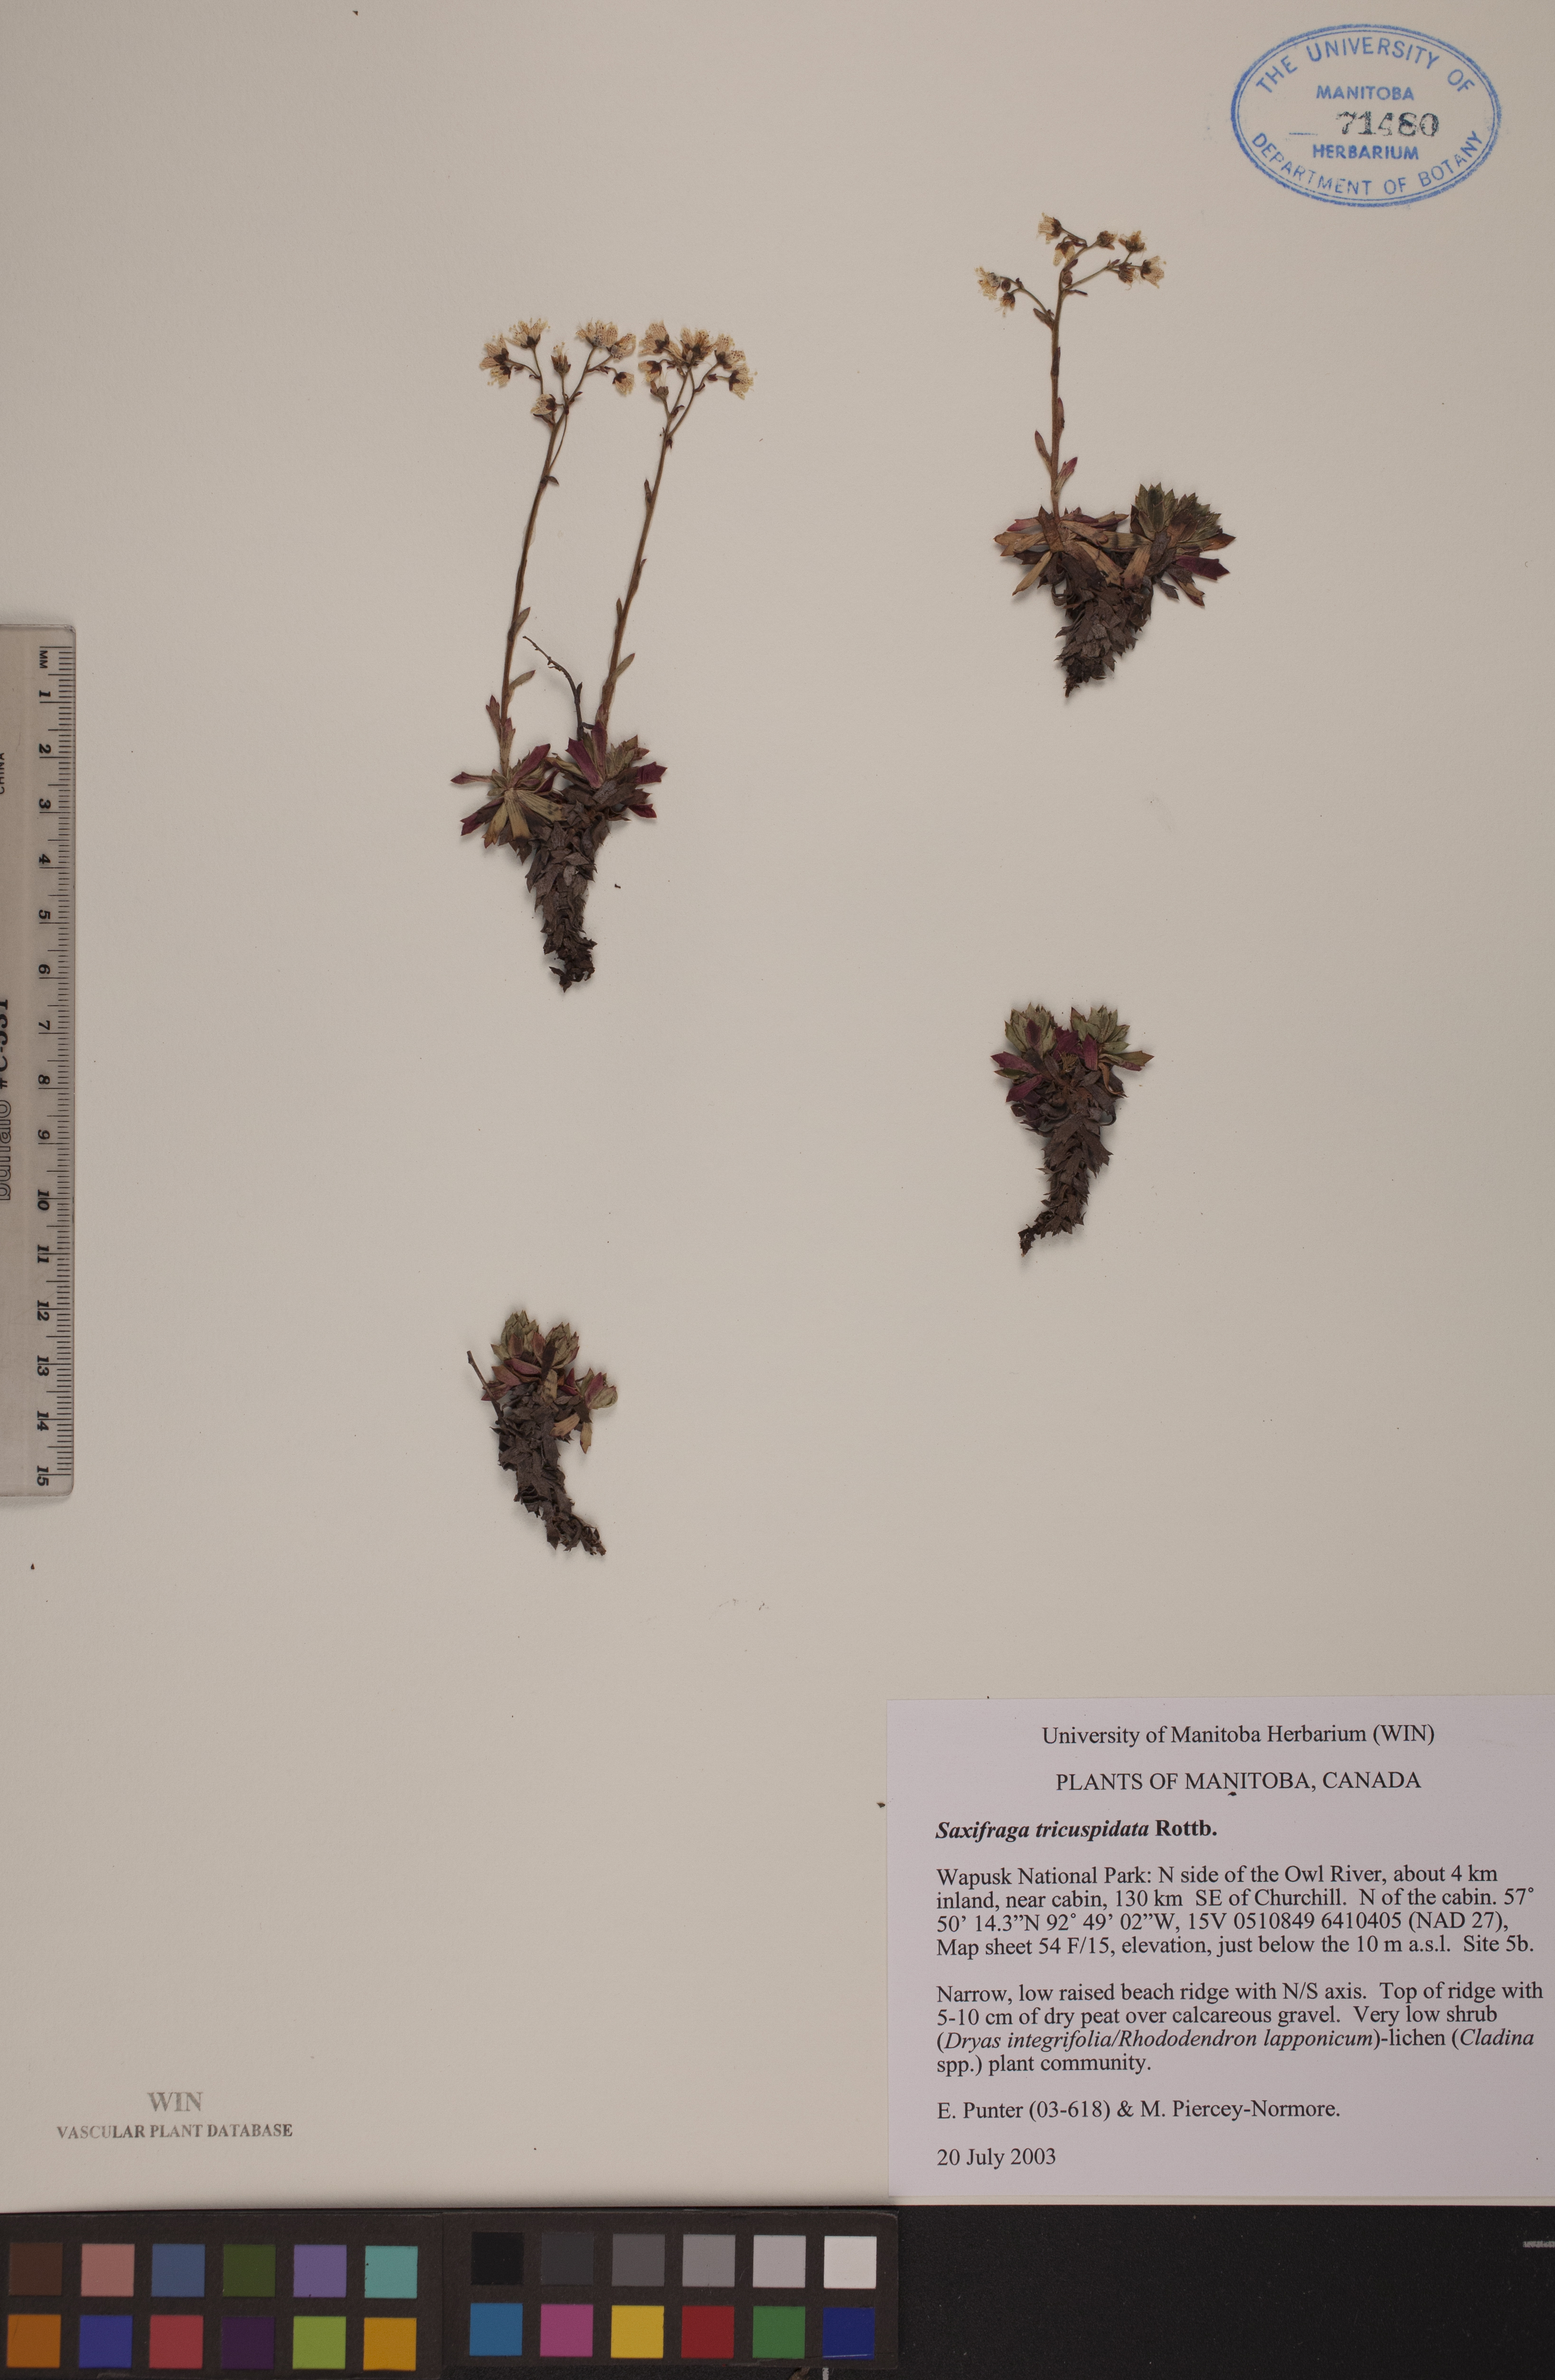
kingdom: Plantae
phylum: Tracheophyta
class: Magnoliopsida
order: Saxifragales
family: Saxifragaceae
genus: Saxifraga
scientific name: Saxifraga tricuspidata
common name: Prickly saxifrage
